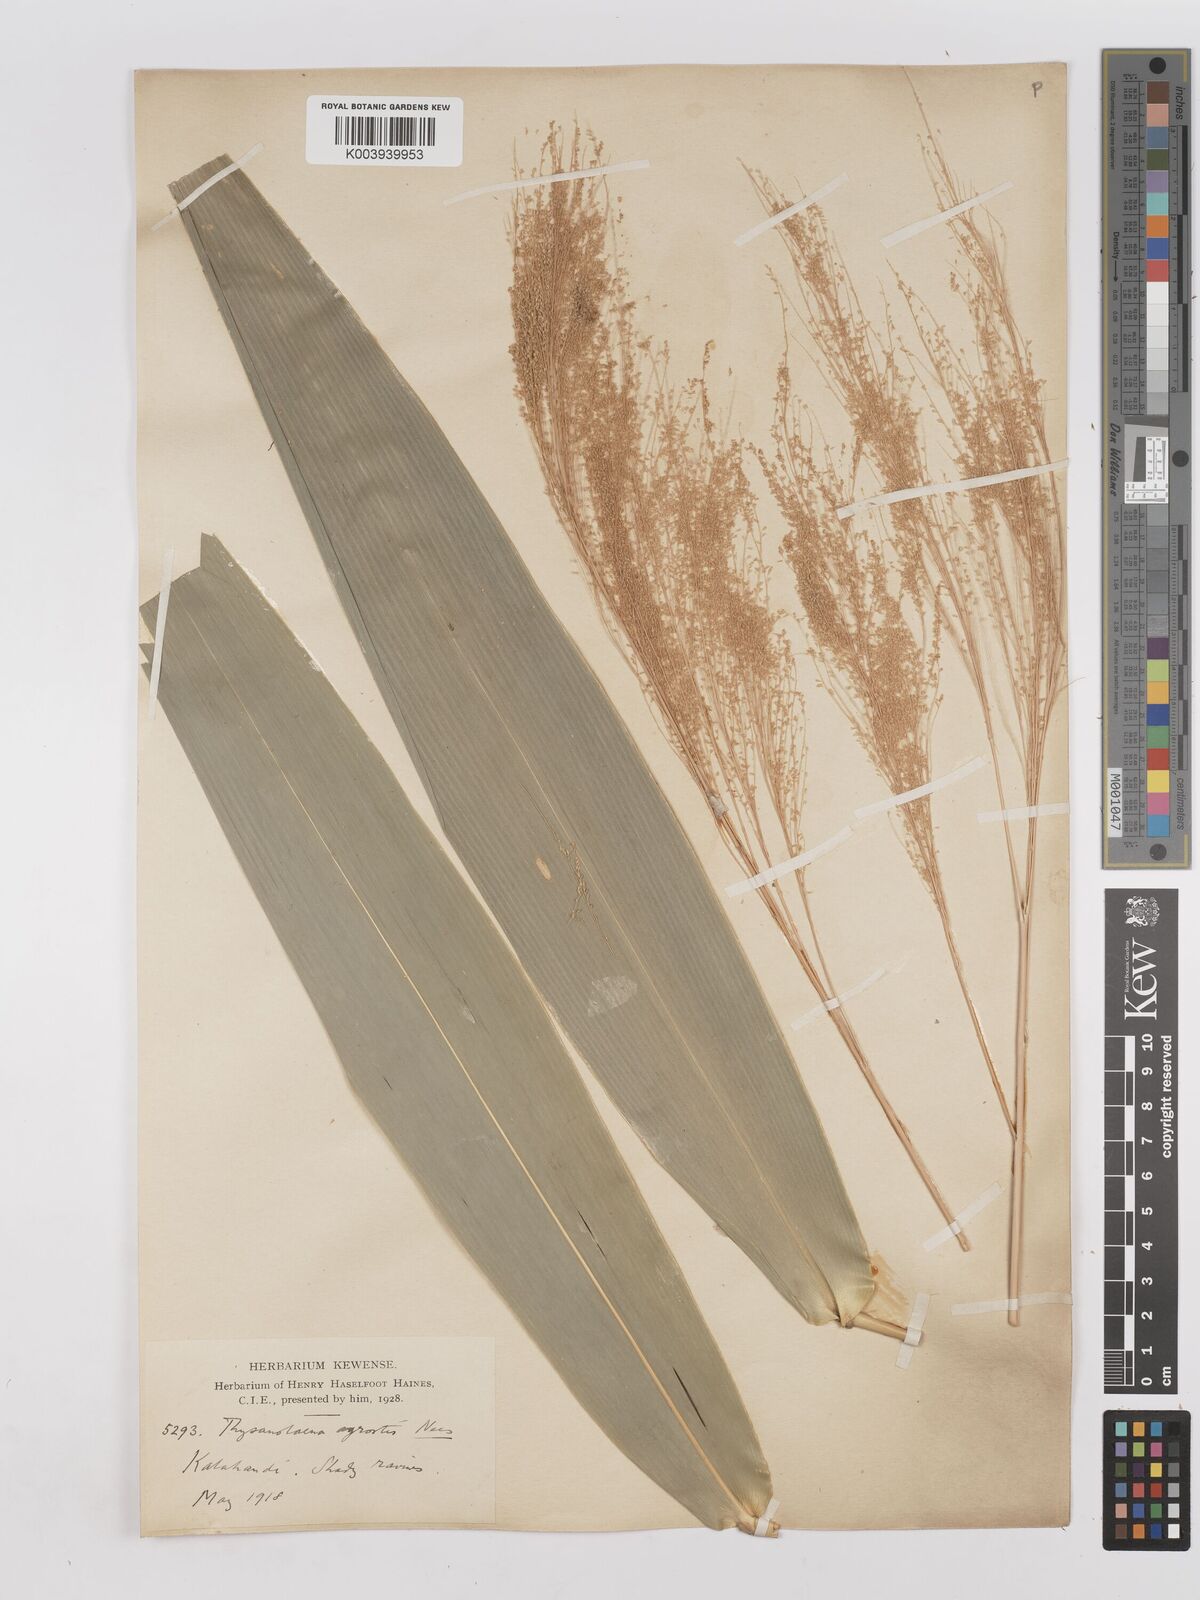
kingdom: Plantae
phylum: Tracheophyta
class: Liliopsida
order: Poales
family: Poaceae
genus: Thysanolaena
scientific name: Thysanolaena latifolia
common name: Tiger grass
